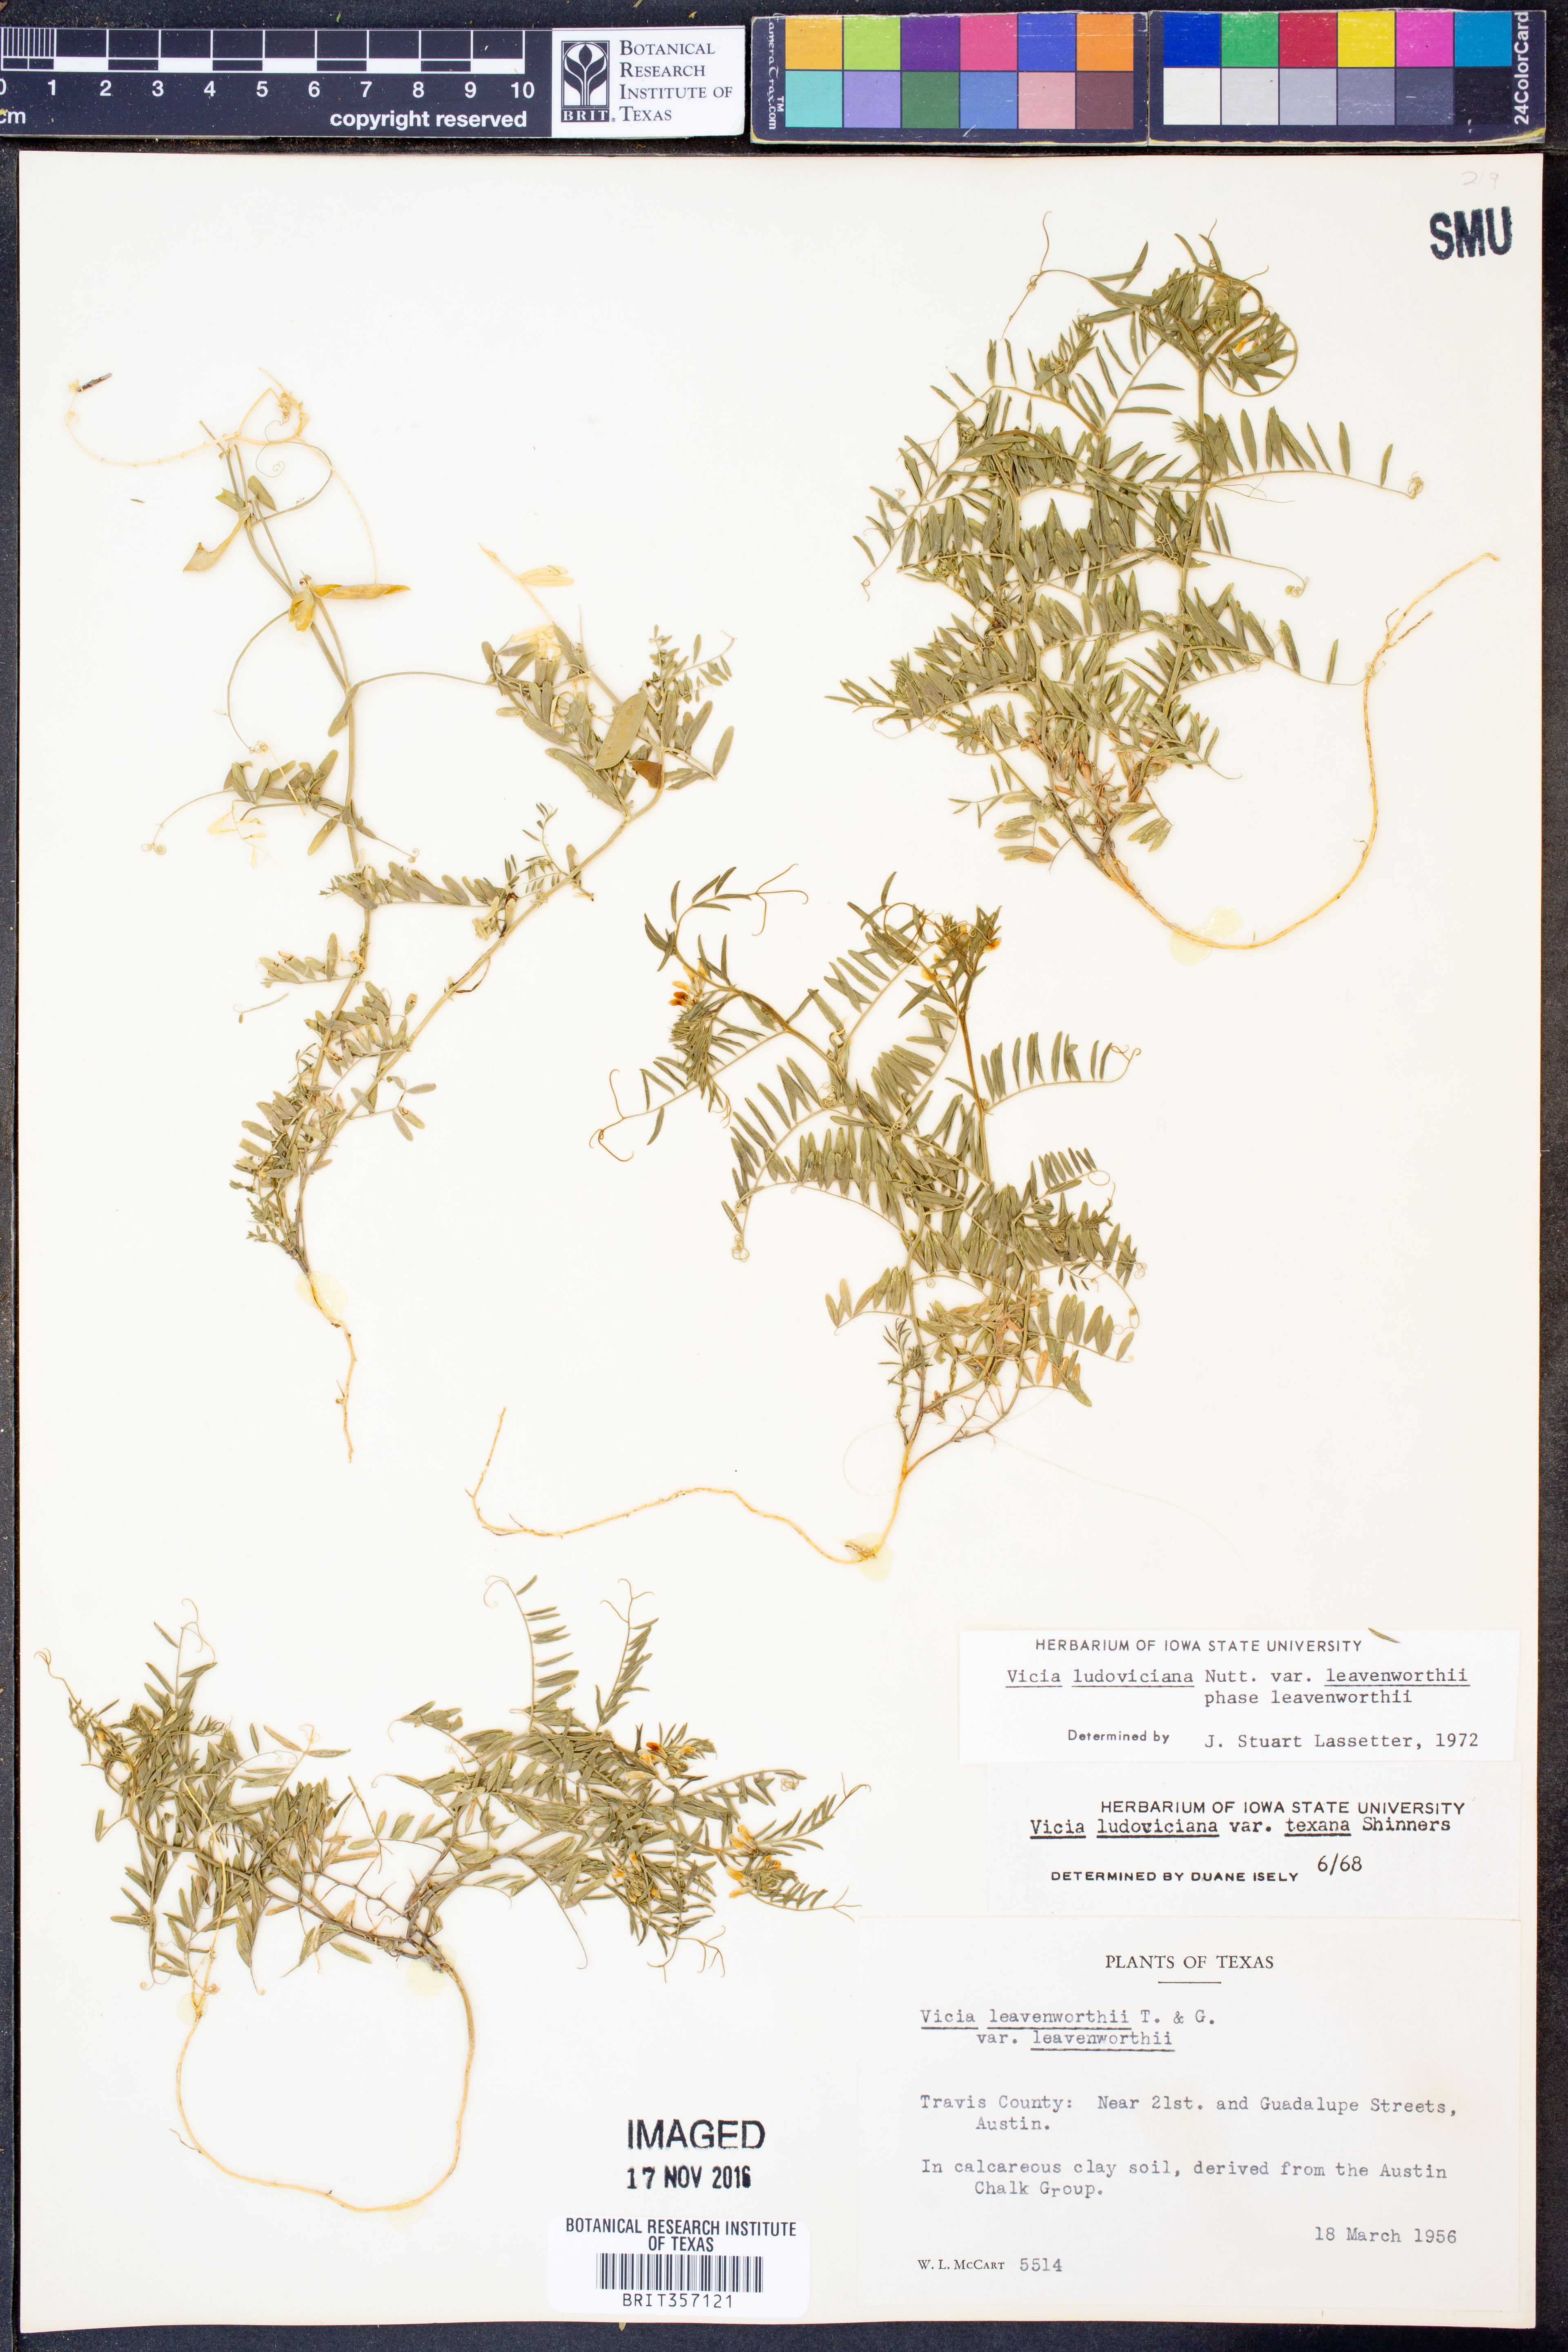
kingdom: Plantae
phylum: Tracheophyta
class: Magnoliopsida
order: Fabales
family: Fabaceae
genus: Vicia
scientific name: Vicia ludoviciana
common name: Louisiana vetch
